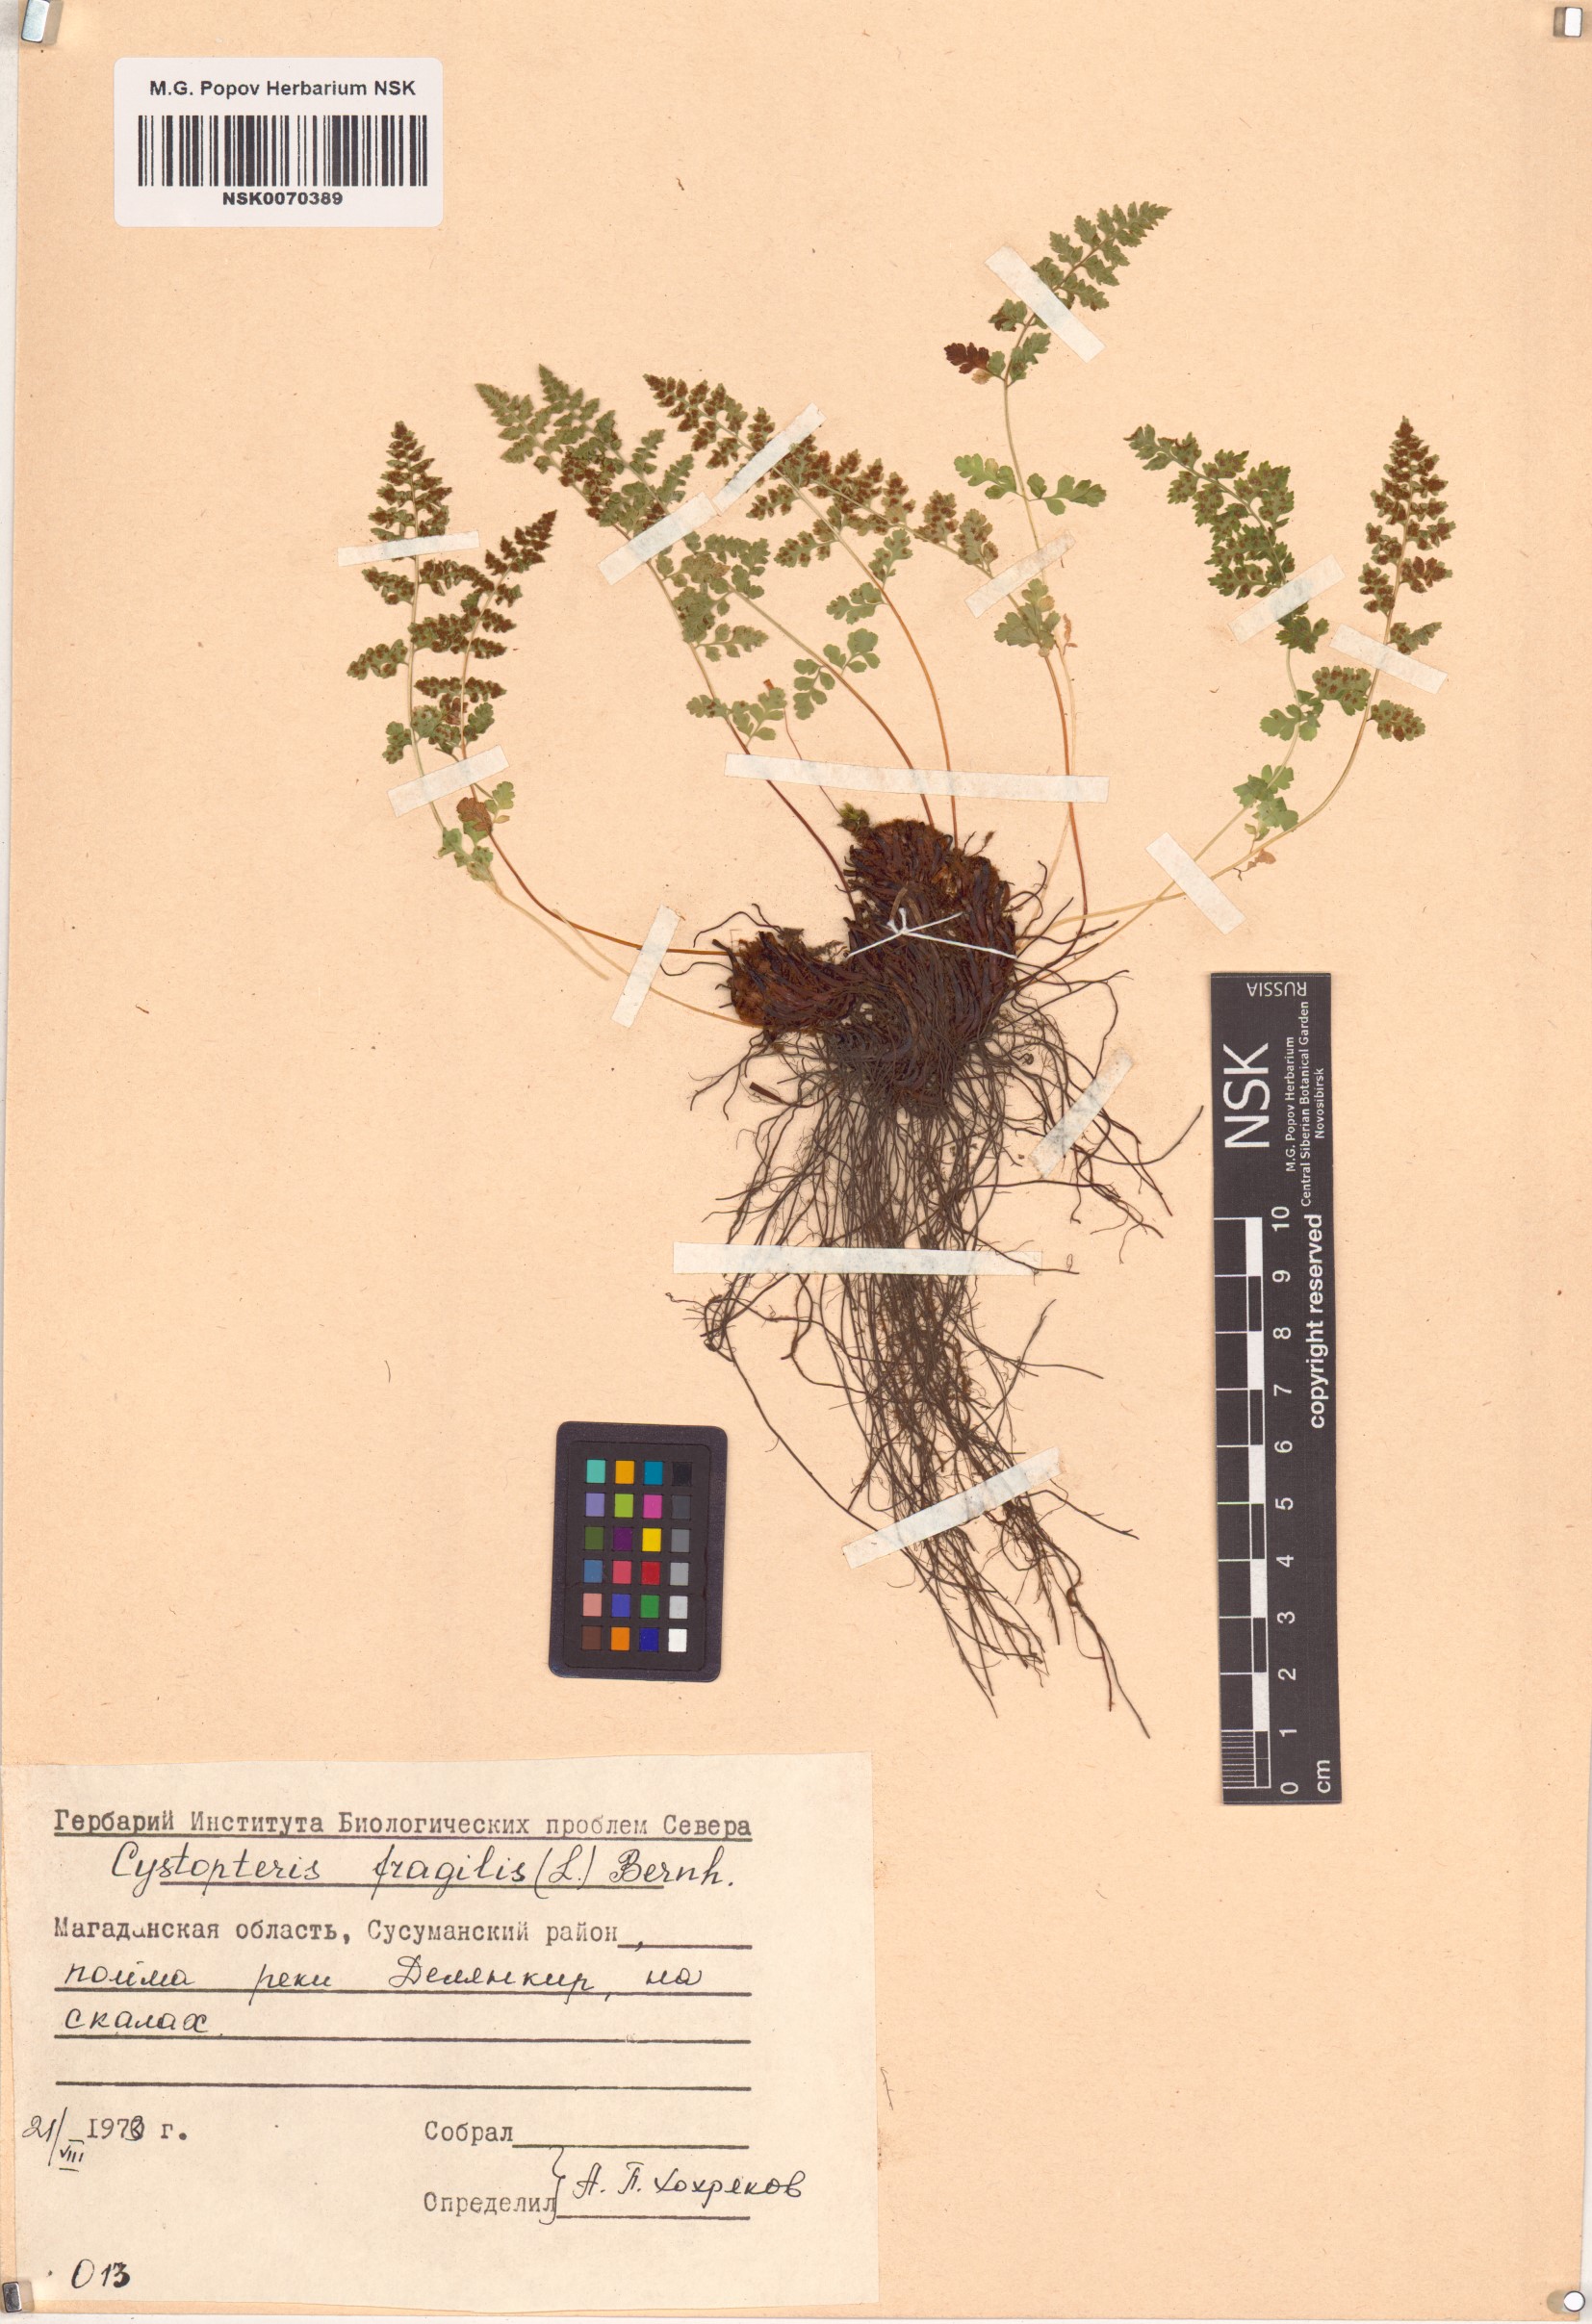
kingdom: Plantae
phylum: Tracheophyta
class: Polypodiopsida
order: Polypodiales
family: Cystopteridaceae
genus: Cystopteris
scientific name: Cystopteris fragilis
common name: Brittle bladder fern
